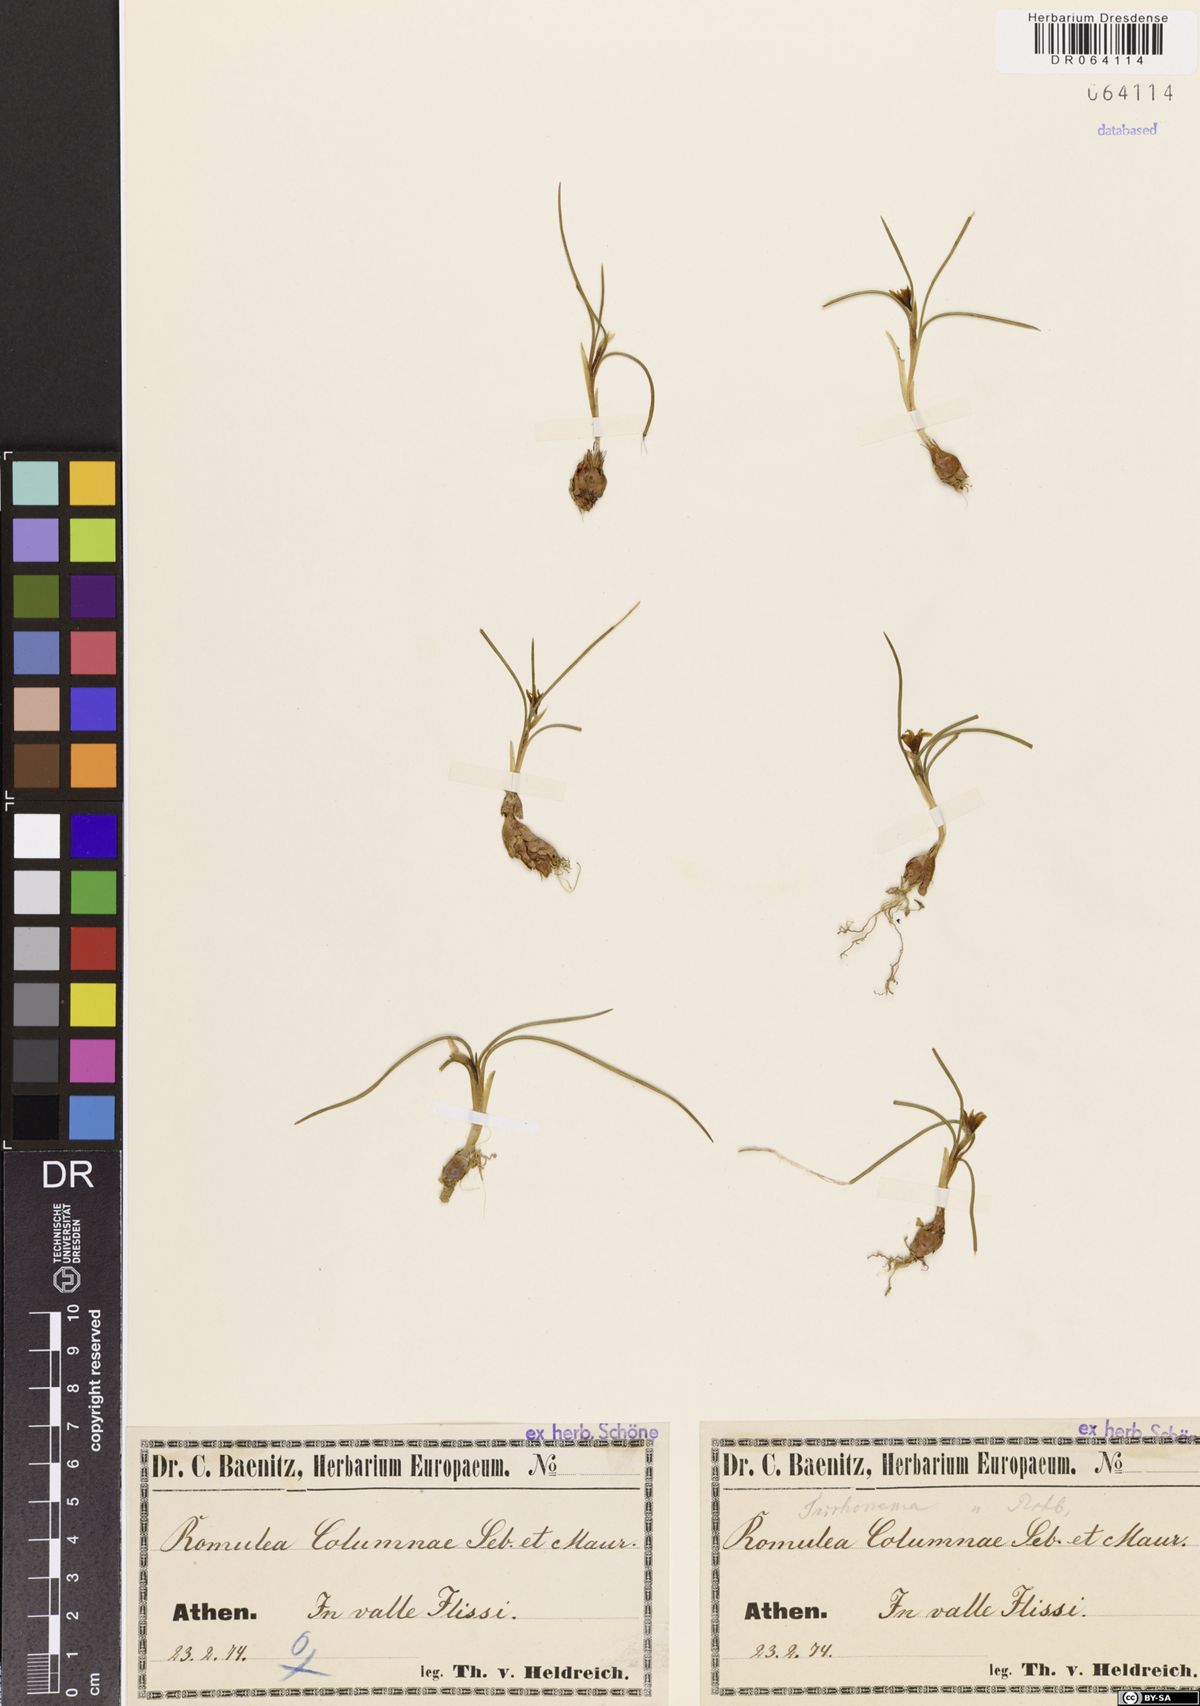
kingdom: Plantae
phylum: Tracheophyta
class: Liliopsida
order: Asparagales
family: Iridaceae
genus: Romulea
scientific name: Romulea columnae
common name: Sand-crocus
